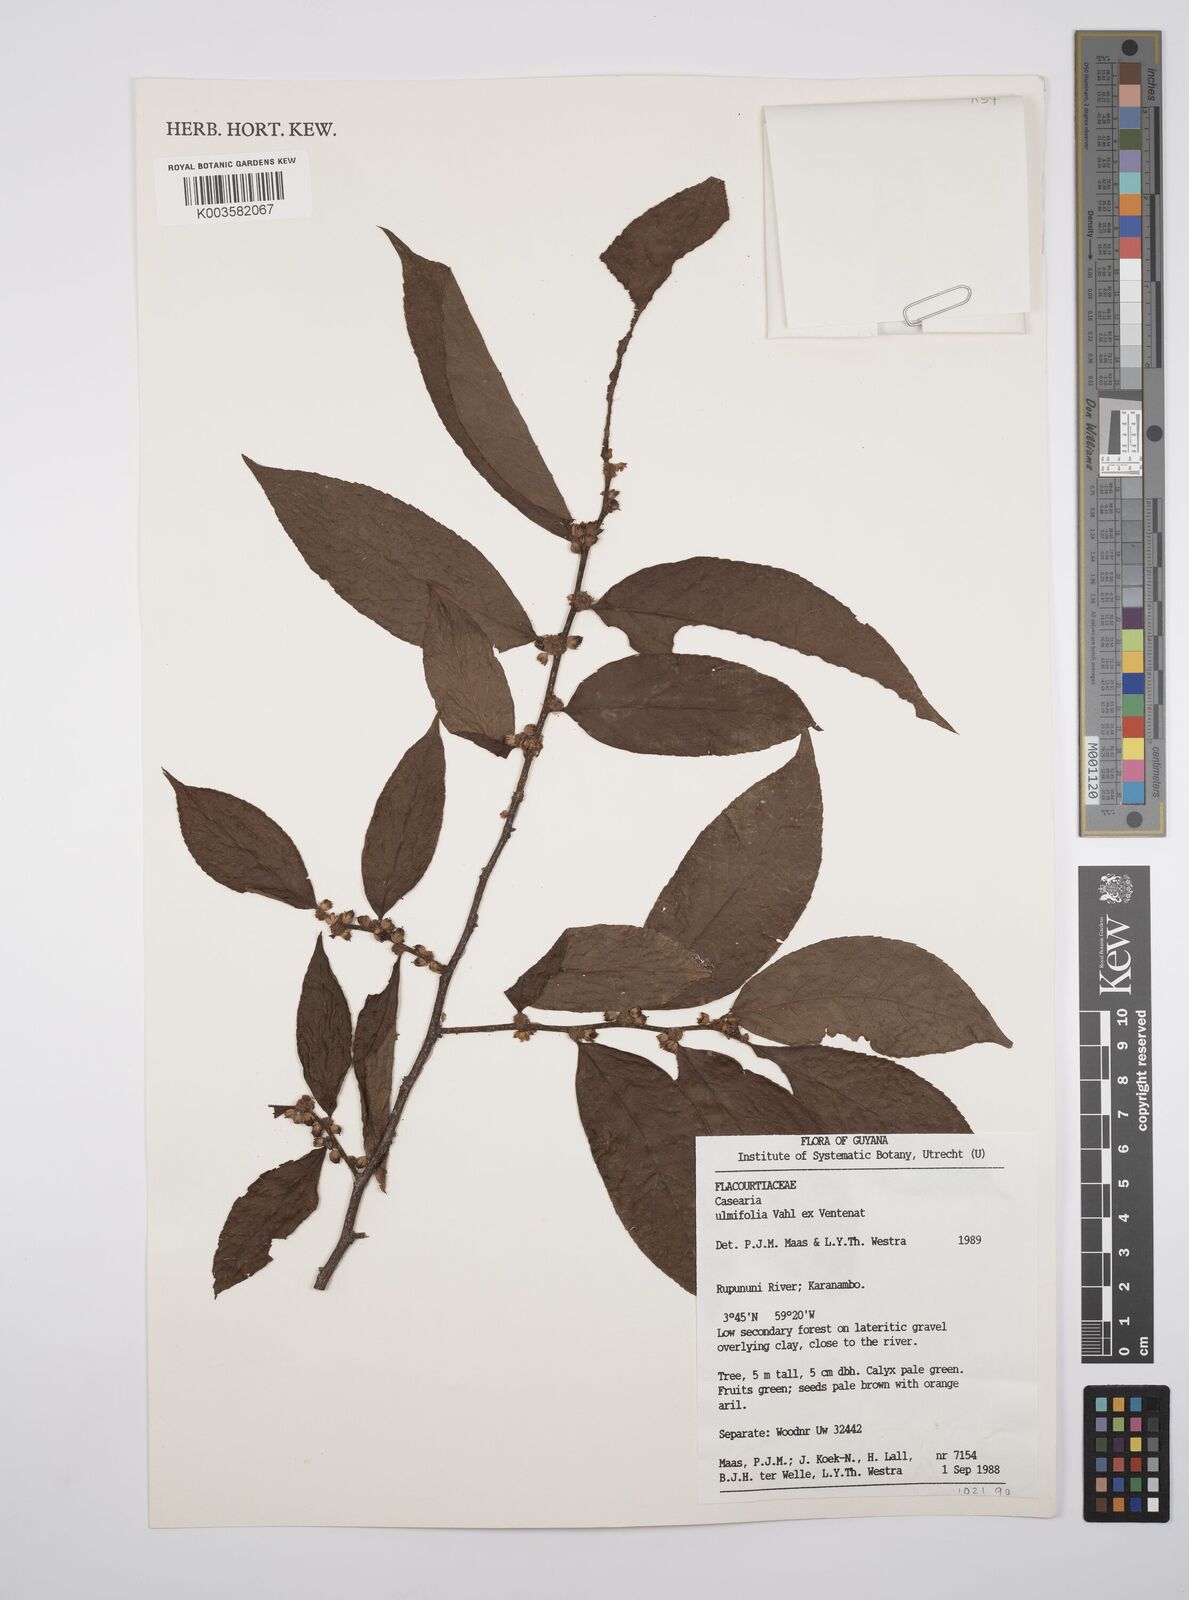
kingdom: Plantae
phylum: Tracheophyta
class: Magnoliopsida
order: Malpighiales
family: Salicaceae
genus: Casearia
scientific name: Casearia ulmifolia
